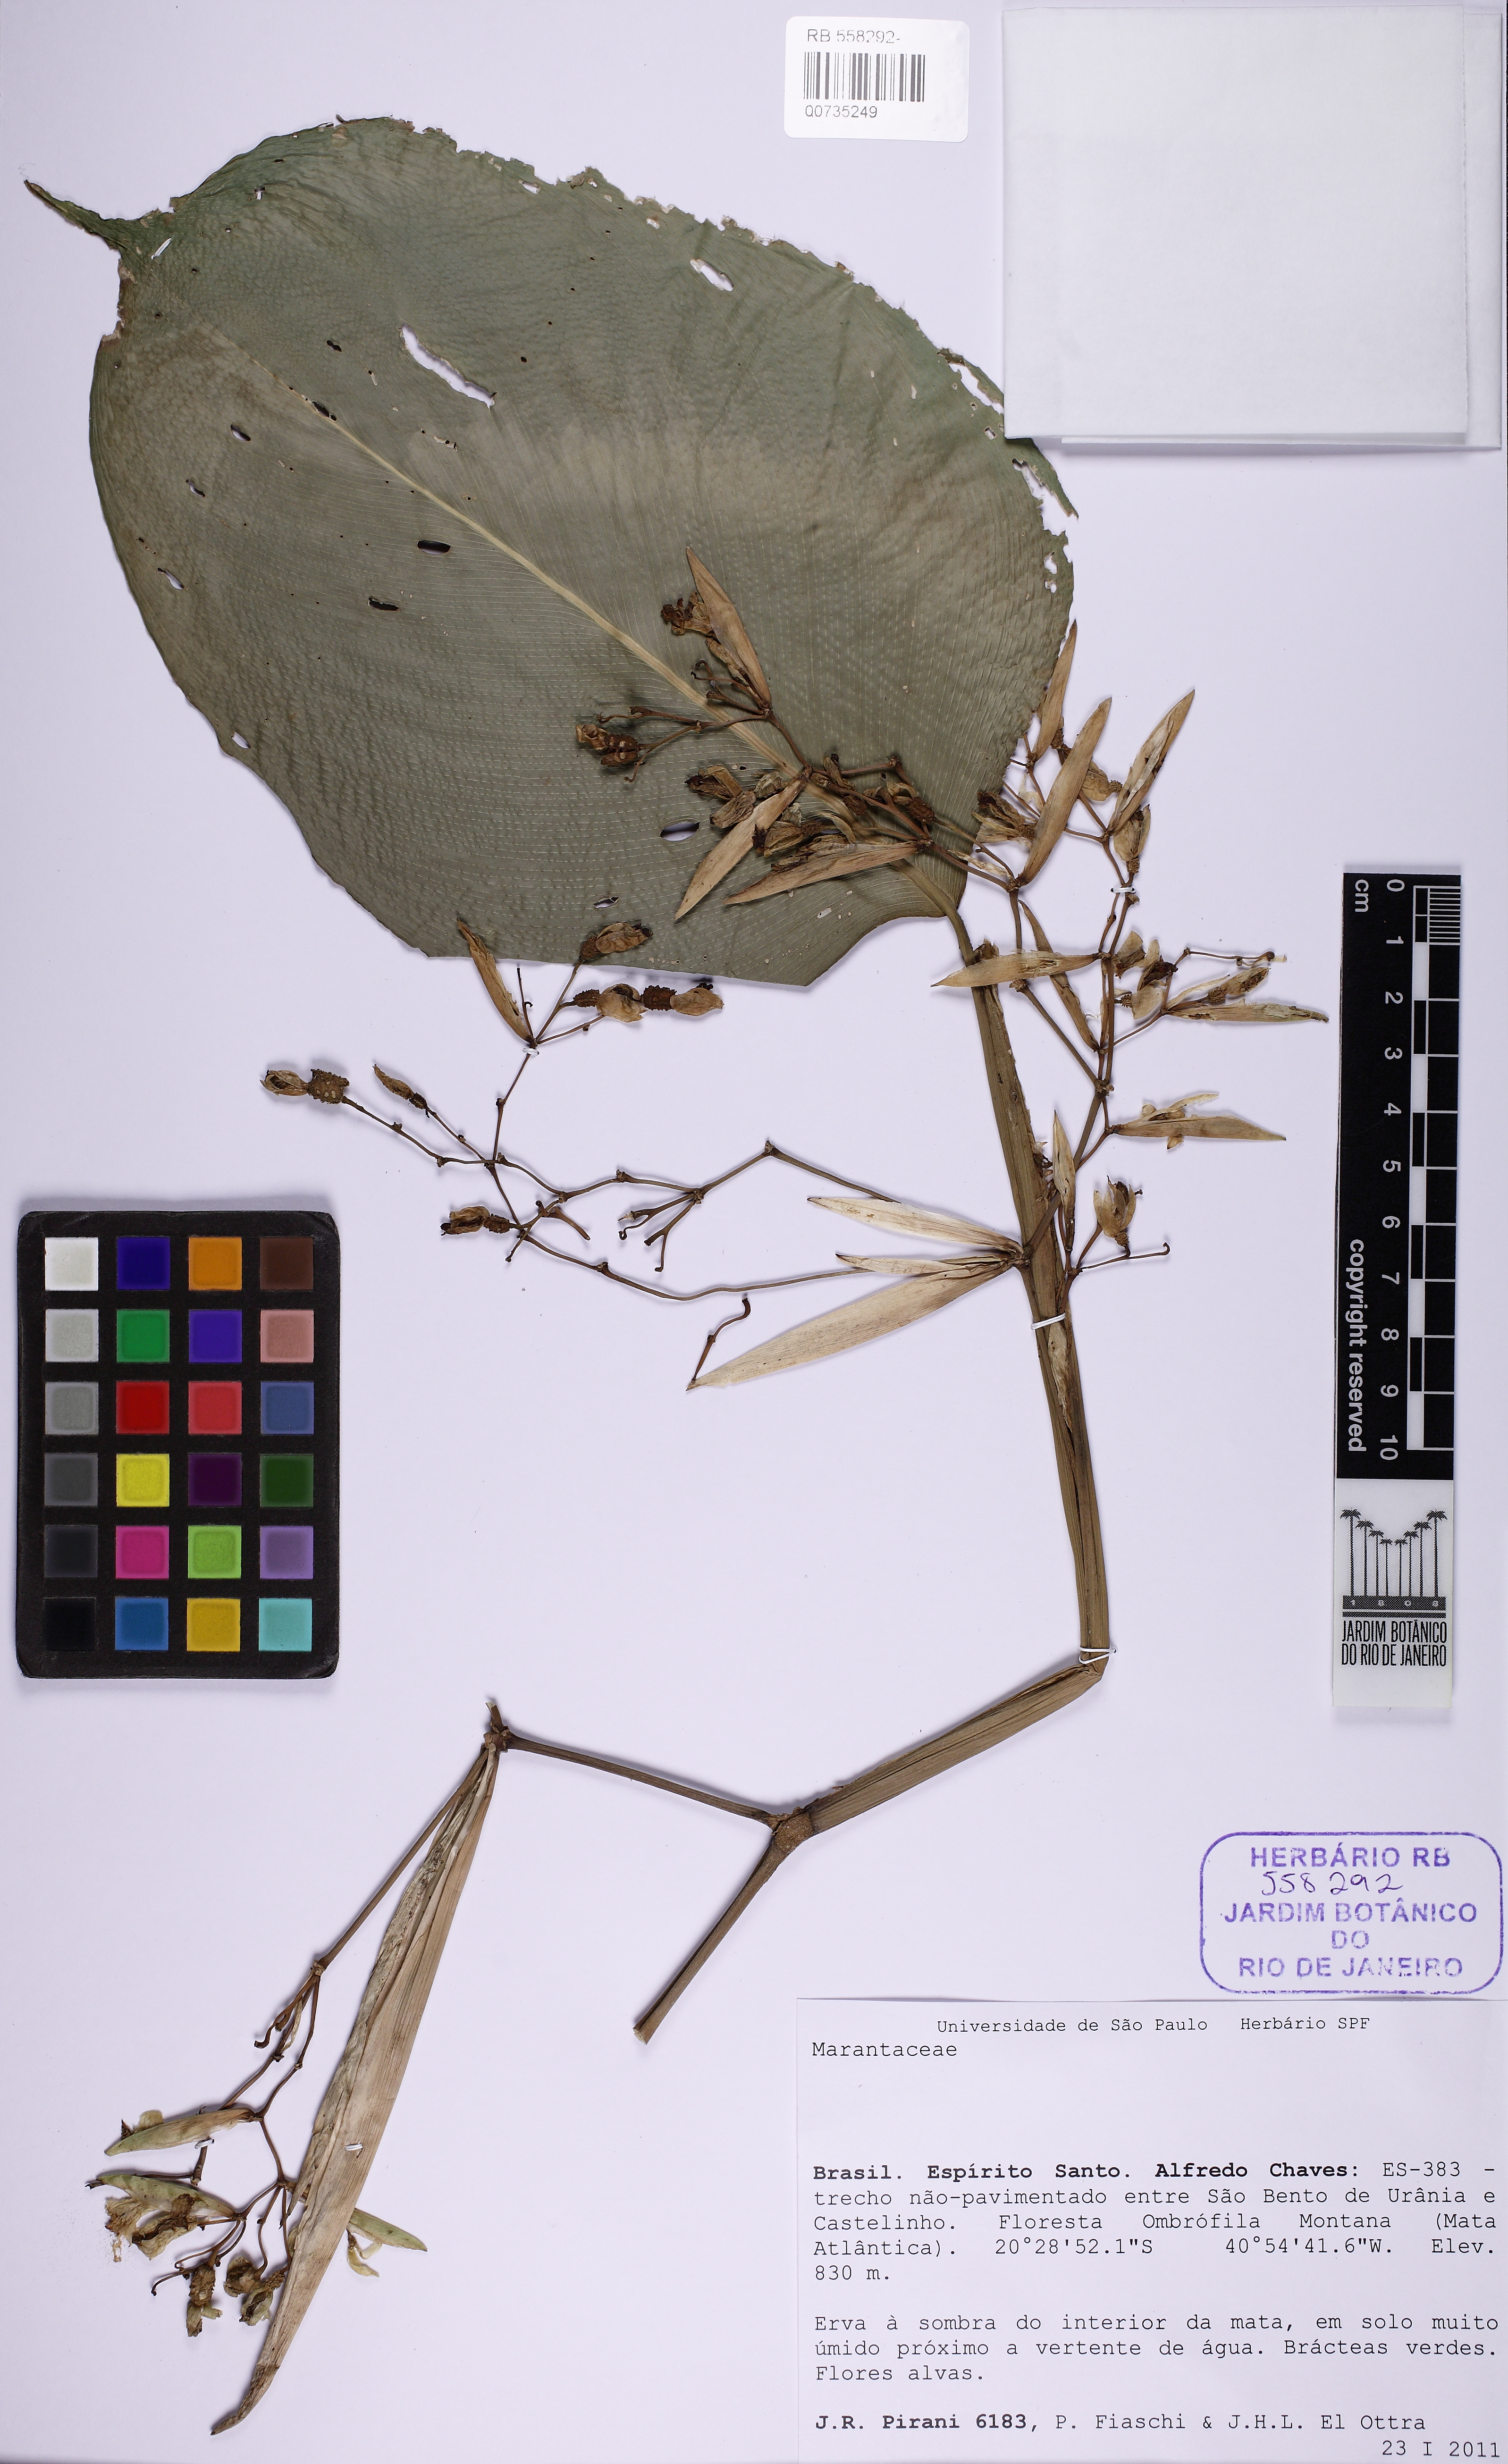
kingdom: Plantae
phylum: Tracheophyta
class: Liliopsida
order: Zingiberales
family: Marantaceae
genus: Stromanthe
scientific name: Stromanthe papillosa
